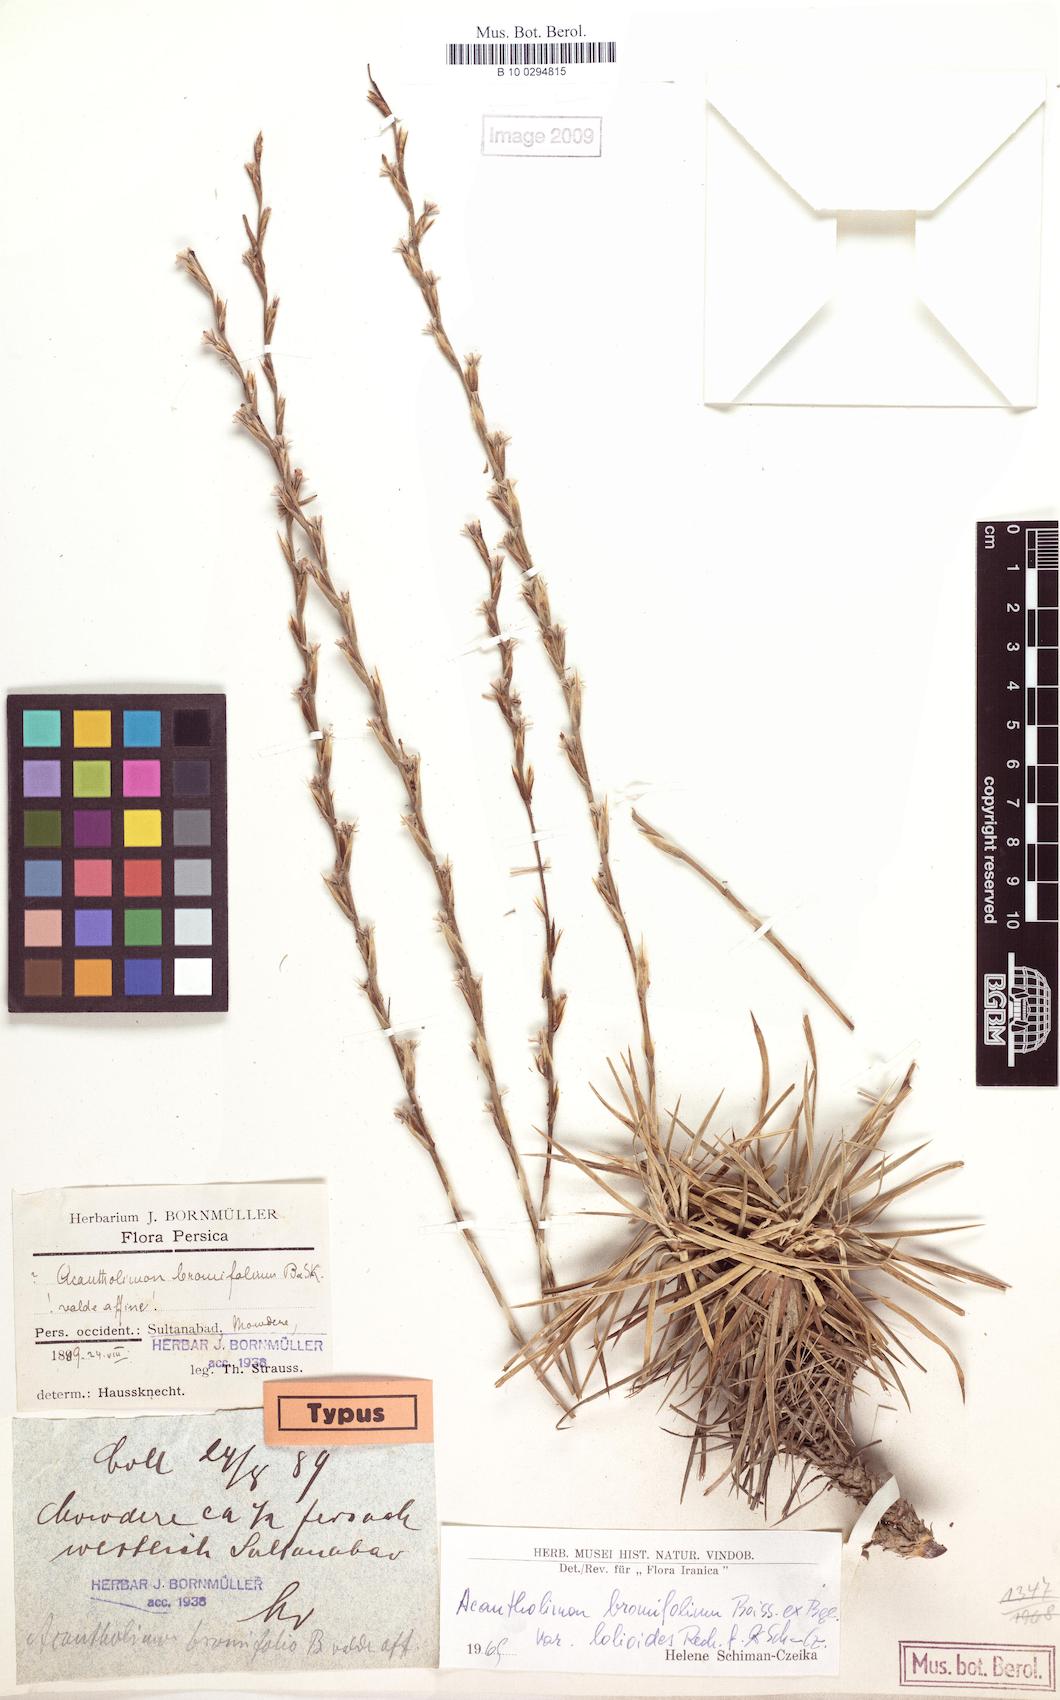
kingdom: Plantae
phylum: Tracheophyta
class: Magnoliopsida
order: Caryophyllales
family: Plumbaginaceae
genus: Acantholimon
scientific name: Acantholimon bromifolium
